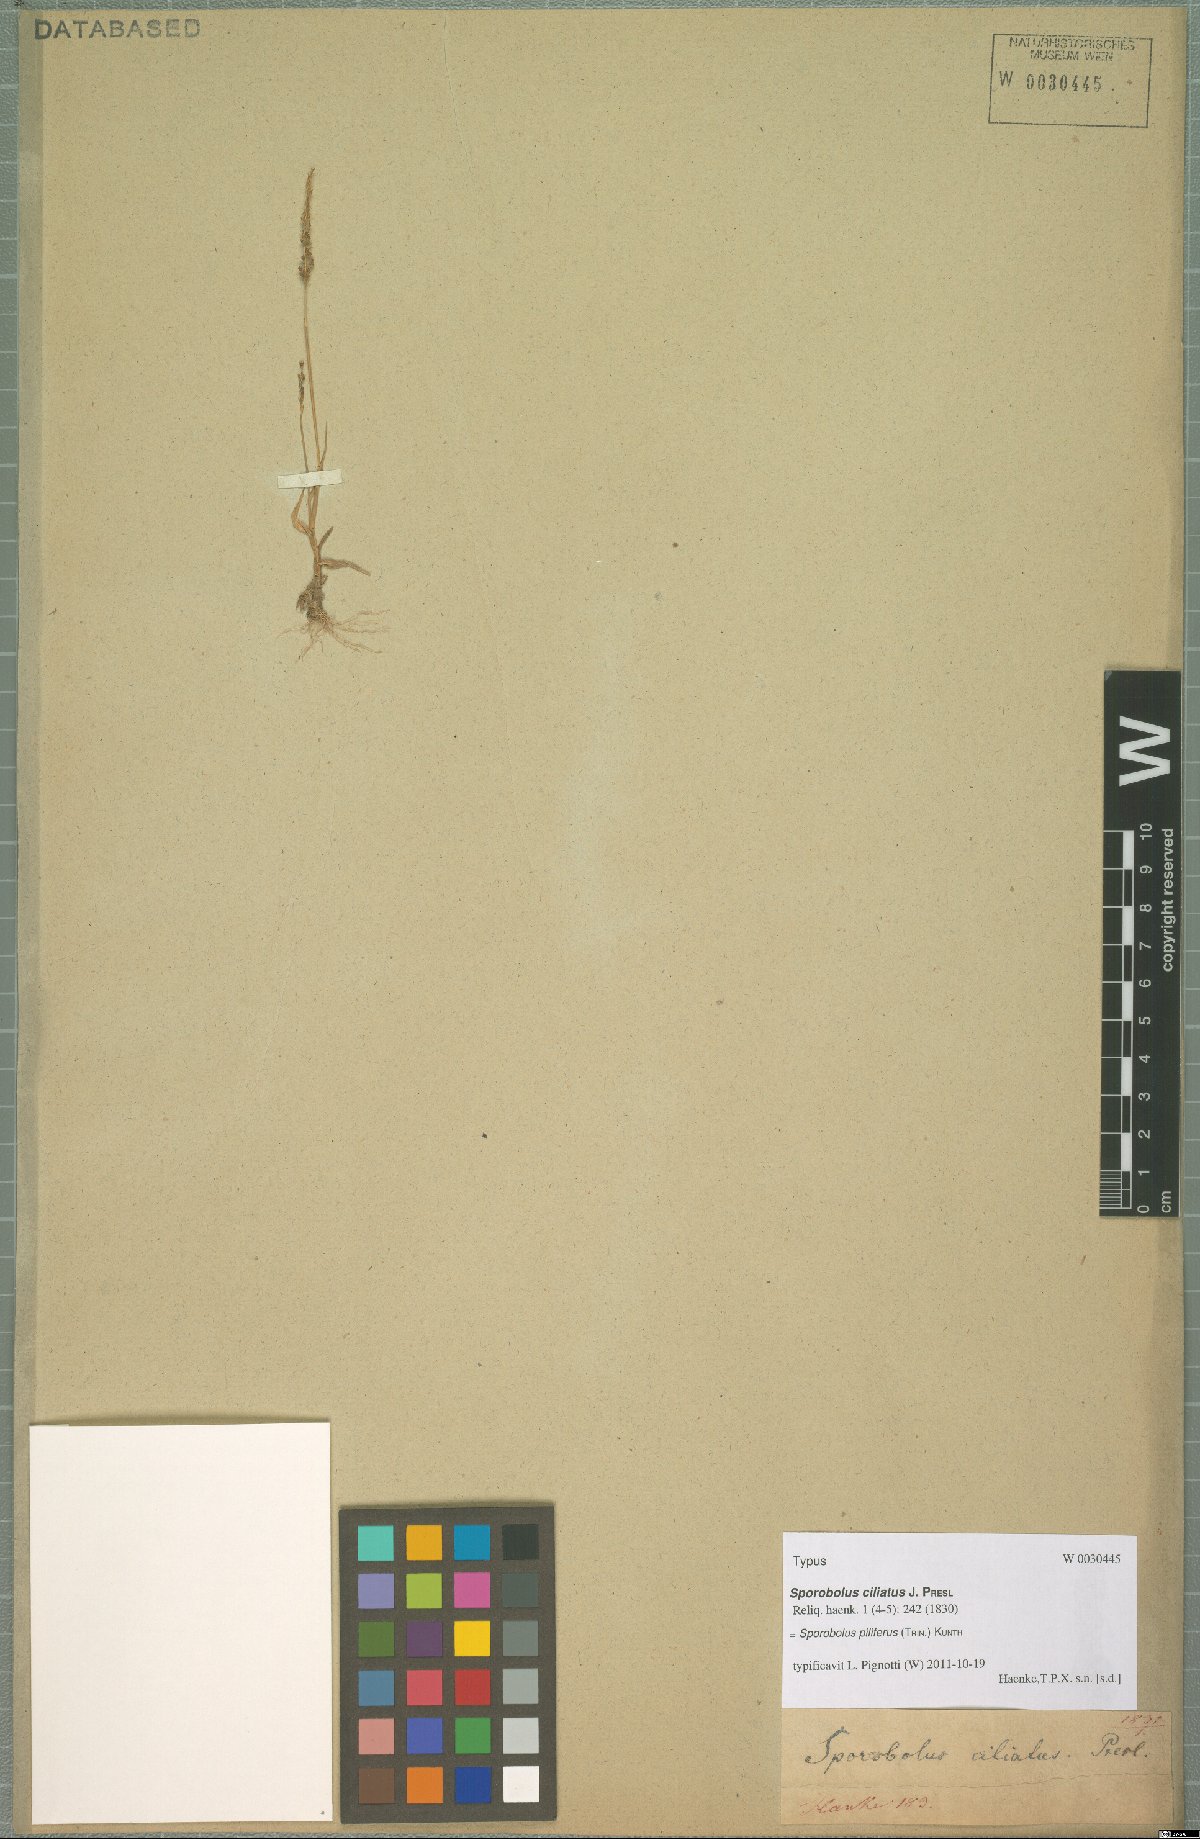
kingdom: Plantae
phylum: Tracheophyta
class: Liliopsida
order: Poales
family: Poaceae
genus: Sporobolus
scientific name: Sporobolus pilifer
